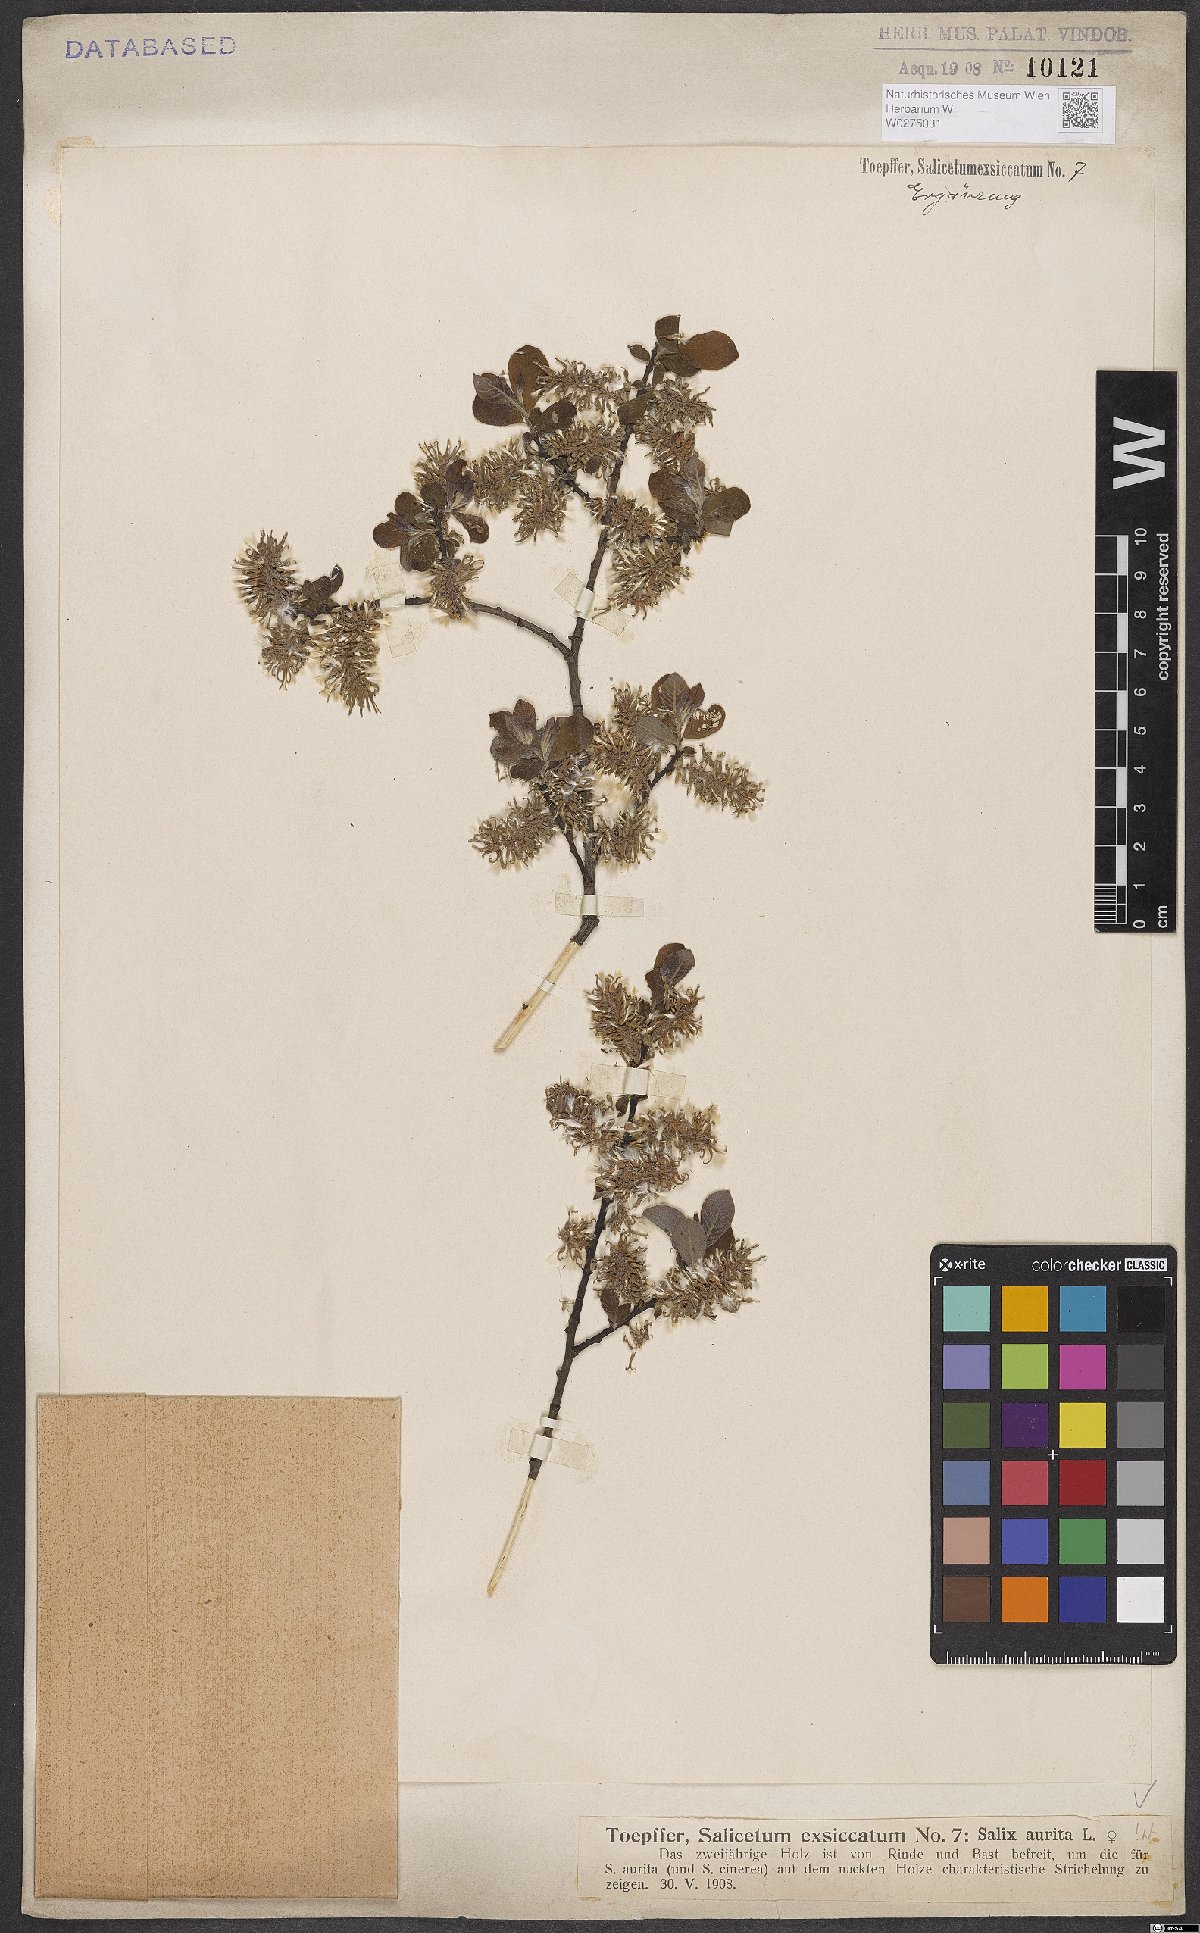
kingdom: Plantae
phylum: Tracheophyta
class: Magnoliopsida
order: Malpighiales
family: Salicaceae
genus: Salix
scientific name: Salix aurita
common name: Eared willow
